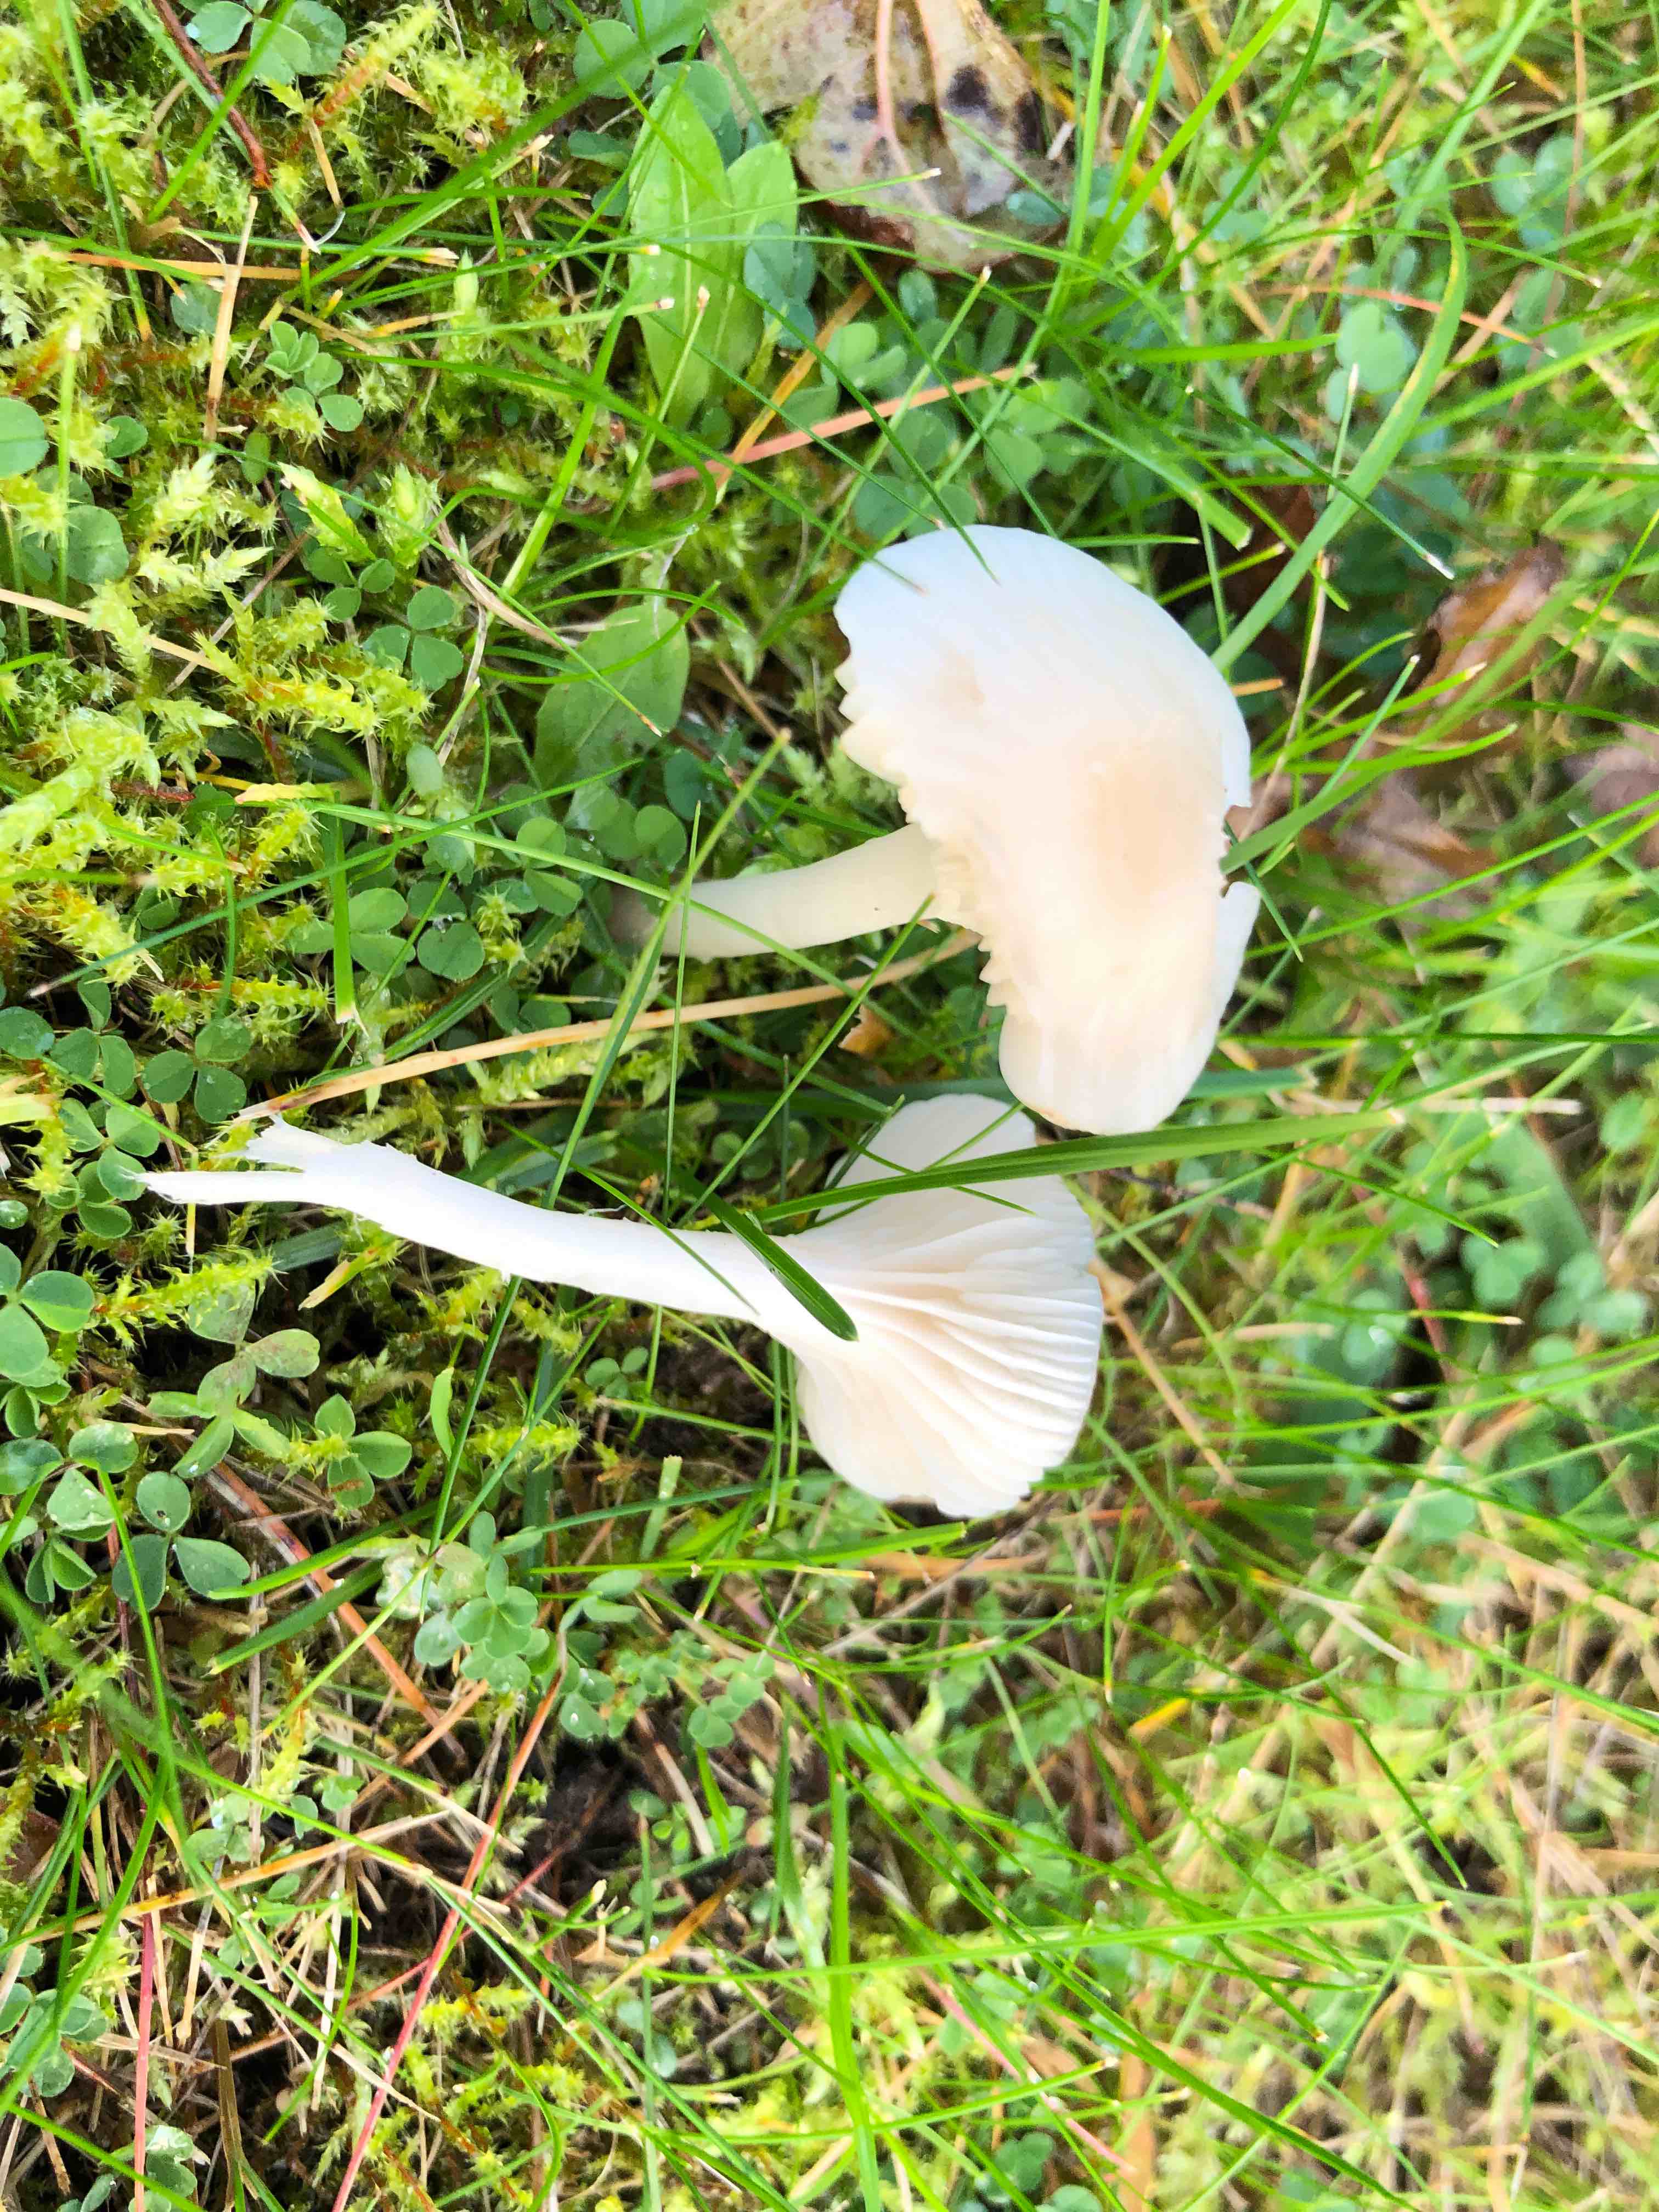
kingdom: Fungi
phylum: Basidiomycota
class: Agaricomycetes
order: Agaricales
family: Hygrophoraceae
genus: Cuphophyllus
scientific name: Cuphophyllus
